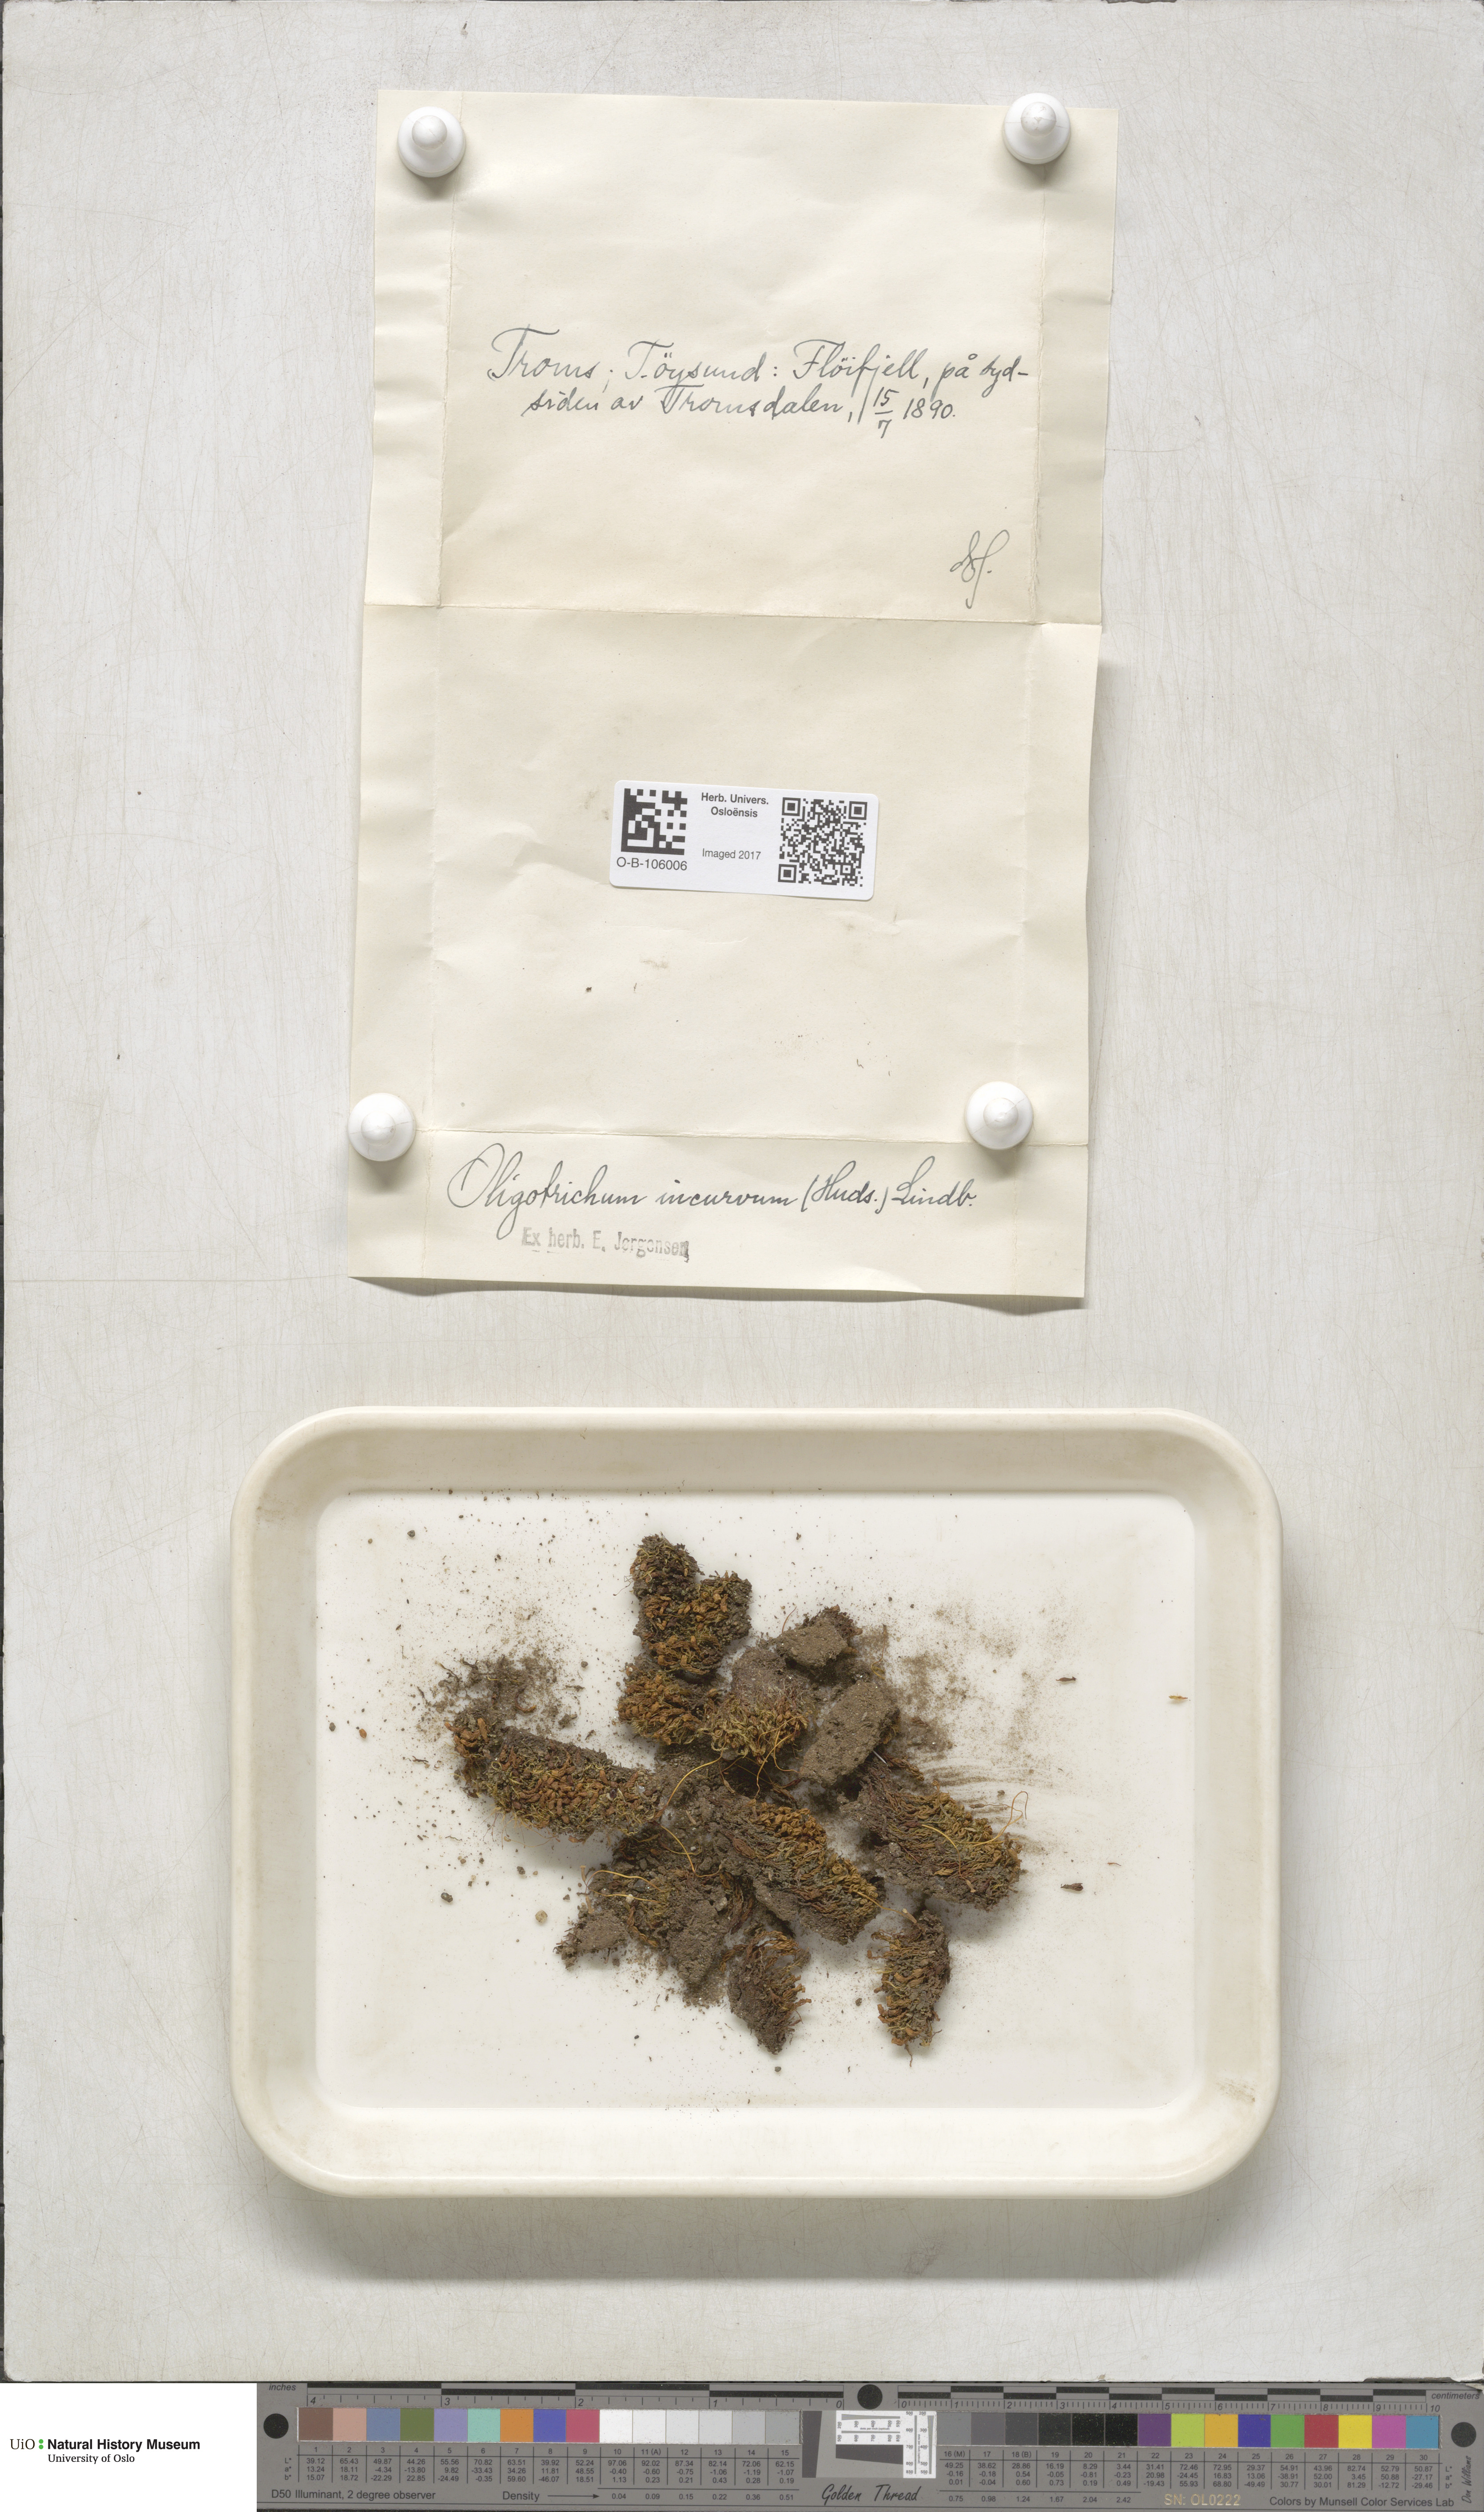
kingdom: Plantae
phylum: Bryophyta
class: Polytrichopsida
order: Polytrichales
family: Polytrichaceae
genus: Oligotrichum
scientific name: Oligotrichum hercynicum
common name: Hercynian hair moss
